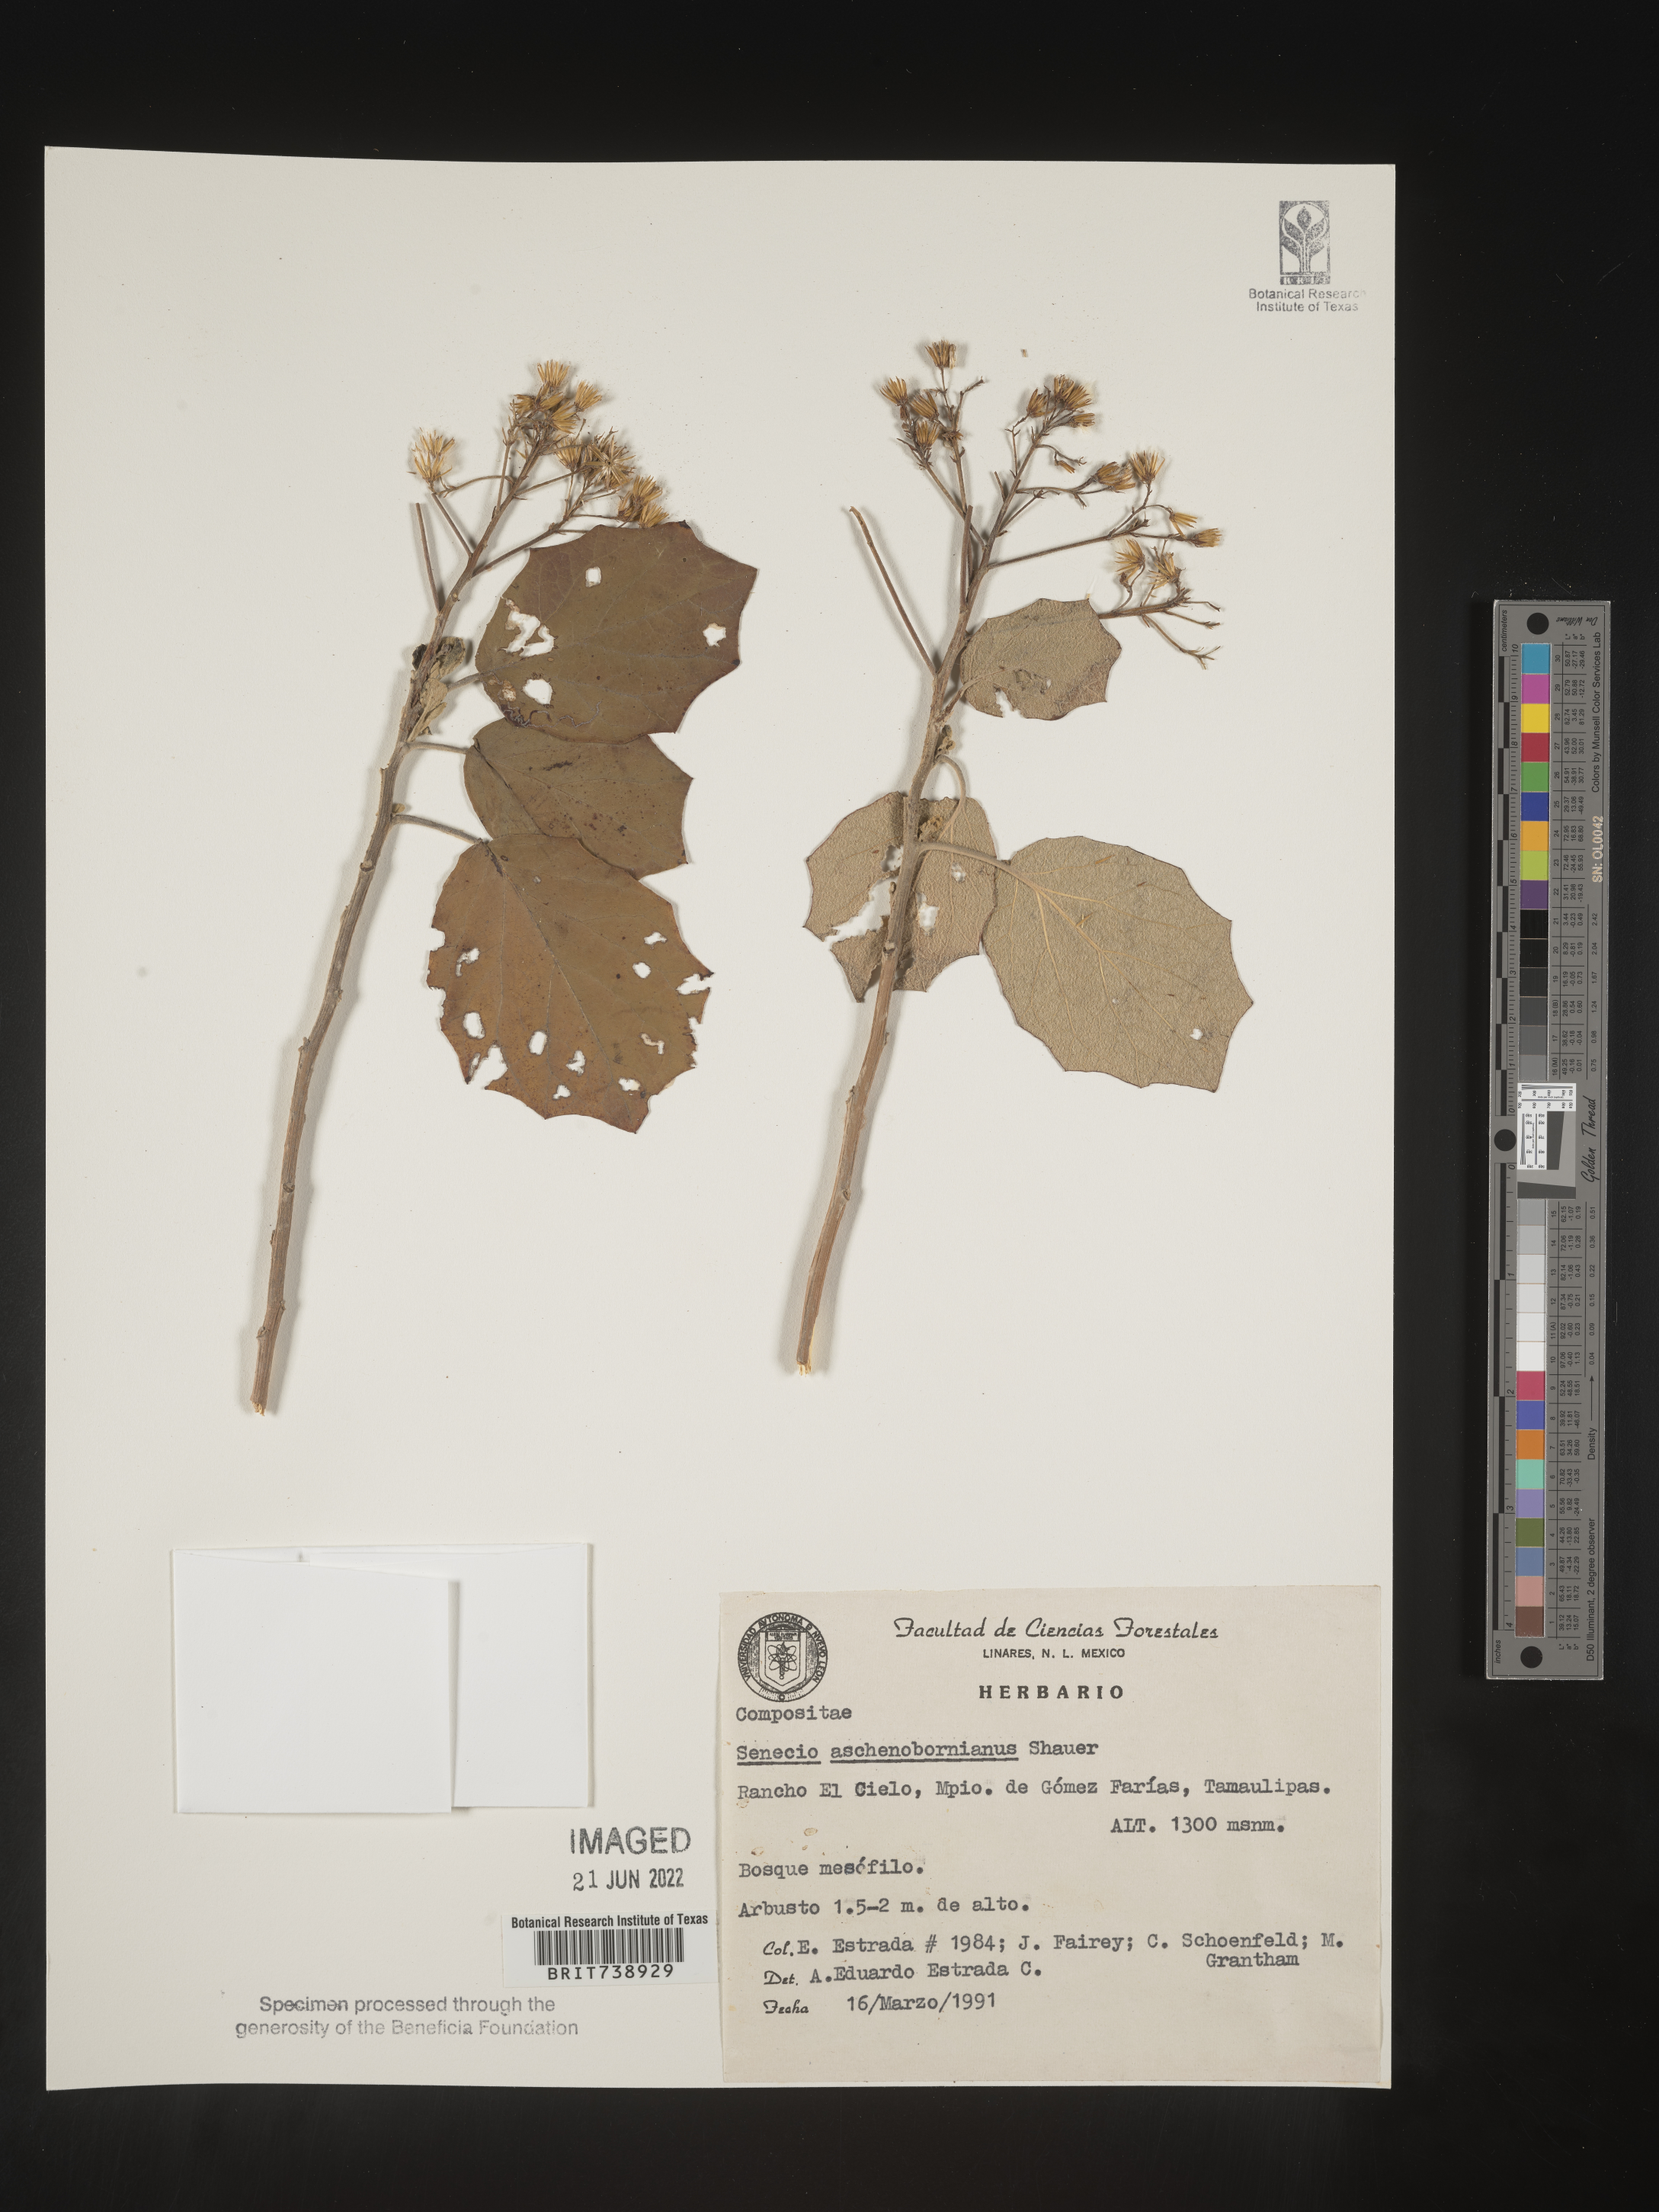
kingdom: Plantae
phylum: Tracheophyta
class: Magnoliopsida
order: Asterales
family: Asteraceae
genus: Roldana
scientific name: Roldana
